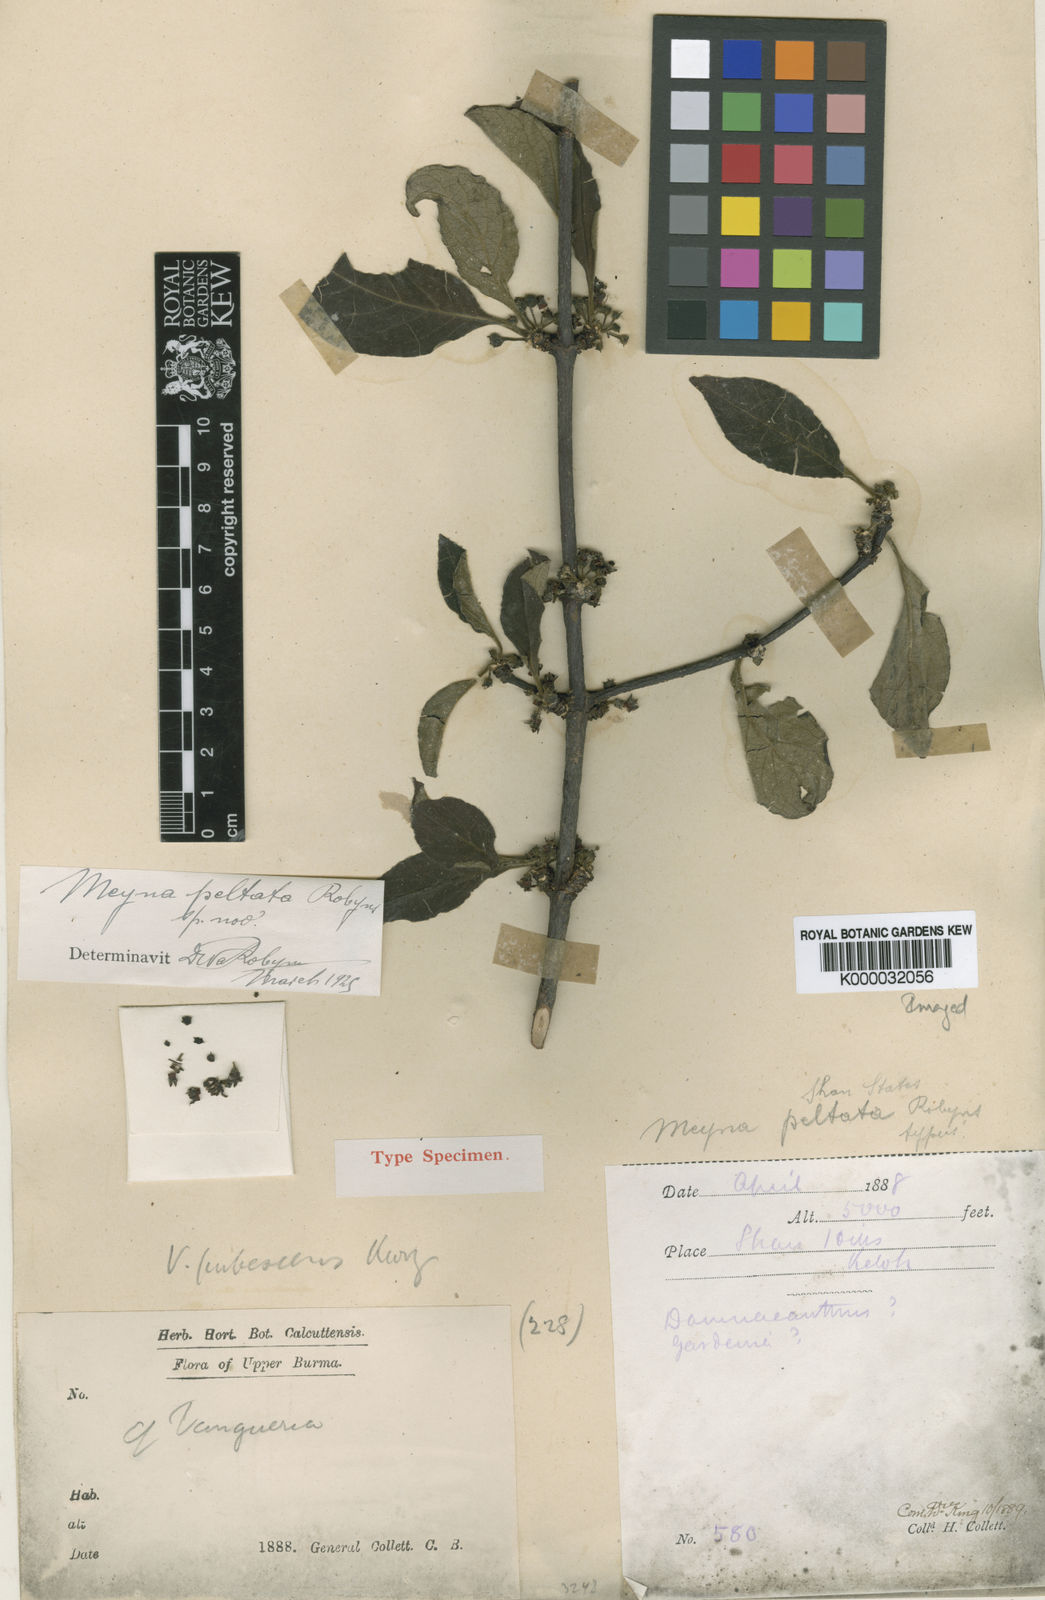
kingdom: Plantae
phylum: Tracheophyta
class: Magnoliopsida
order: Gentianales
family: Rubiaceae
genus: Meyna
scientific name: Meyna peltata
